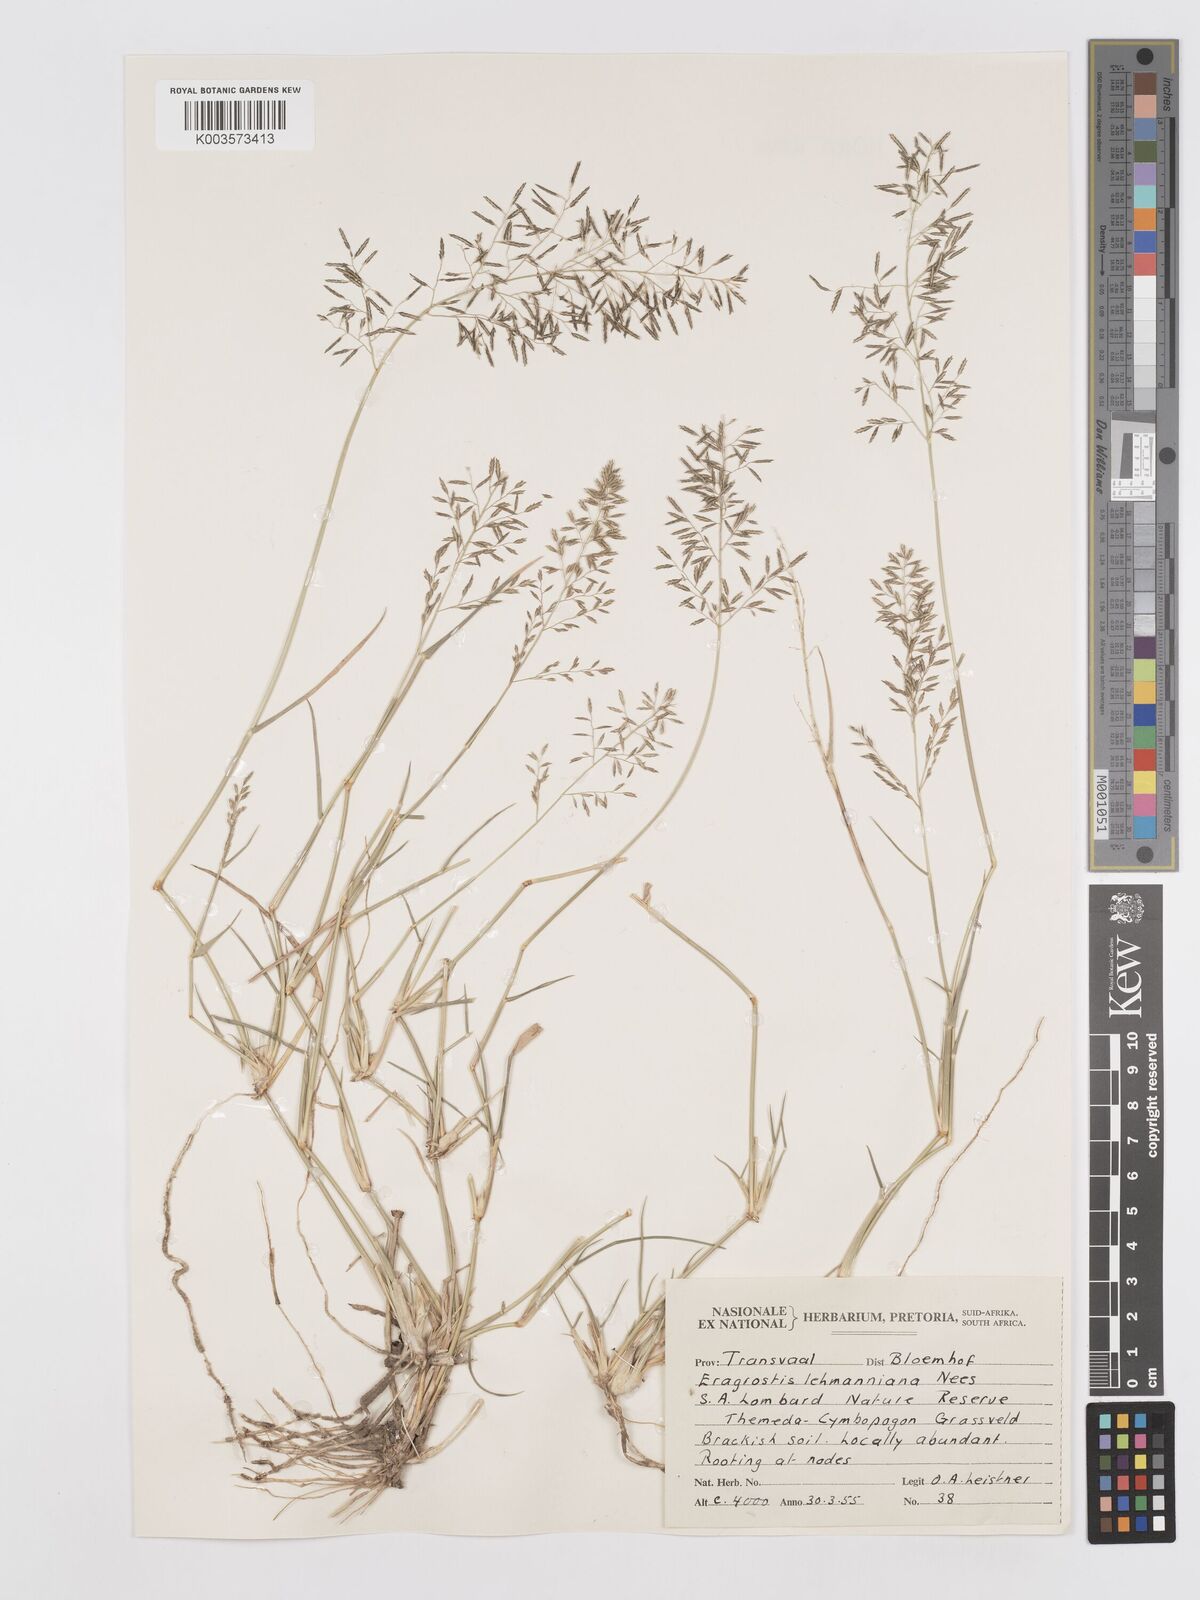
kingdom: Plantae
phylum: Tracheophyta
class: Liliopsida
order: Poales
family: Poaceae
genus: Eragrostis
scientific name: Eragrostis lehmanniana
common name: Lehmann lovegrass
